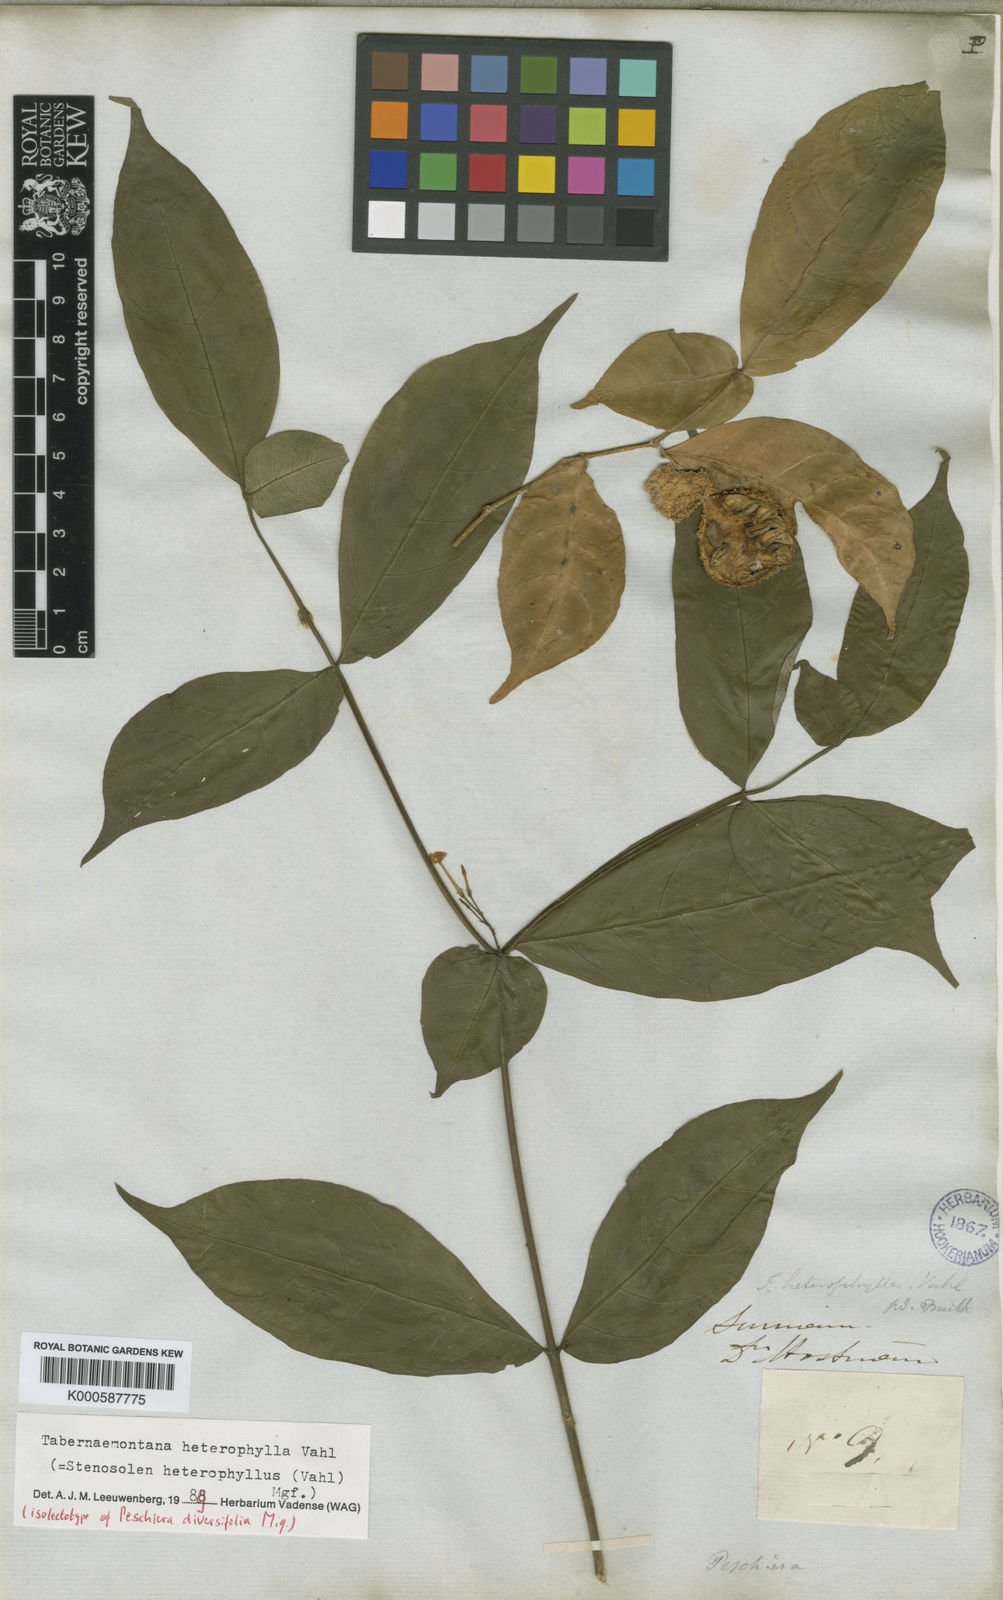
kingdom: Plantae
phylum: Tracheophyta
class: Magnoliopsida
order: Gentianales
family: Apocynaceae
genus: Tabernaemontana
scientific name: Tabernaemontana heterophylla
